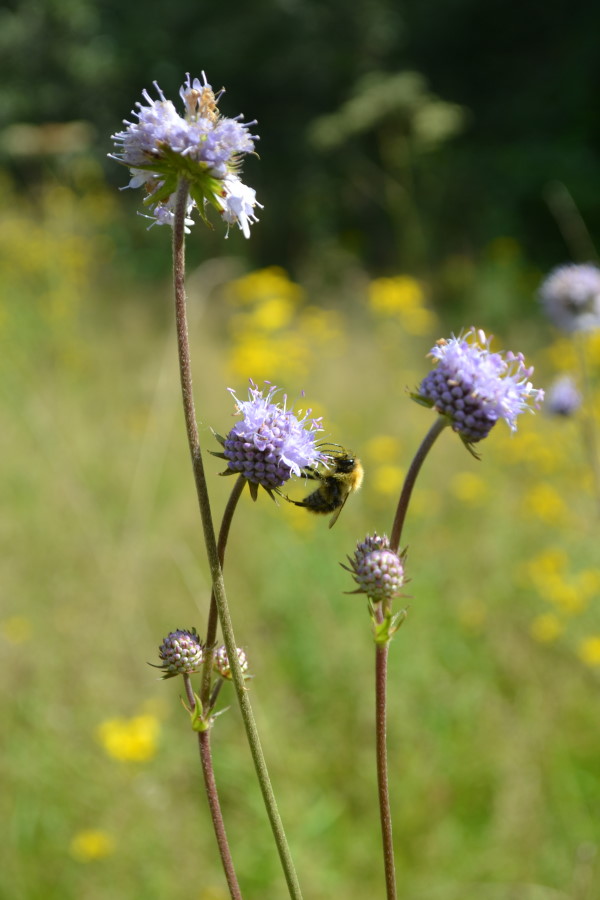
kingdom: Plantae
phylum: Tracheophyta
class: Magnoliopsida
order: Dipsacales
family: Caprifoliaceae
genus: Succisa
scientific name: Succisa pratensis
